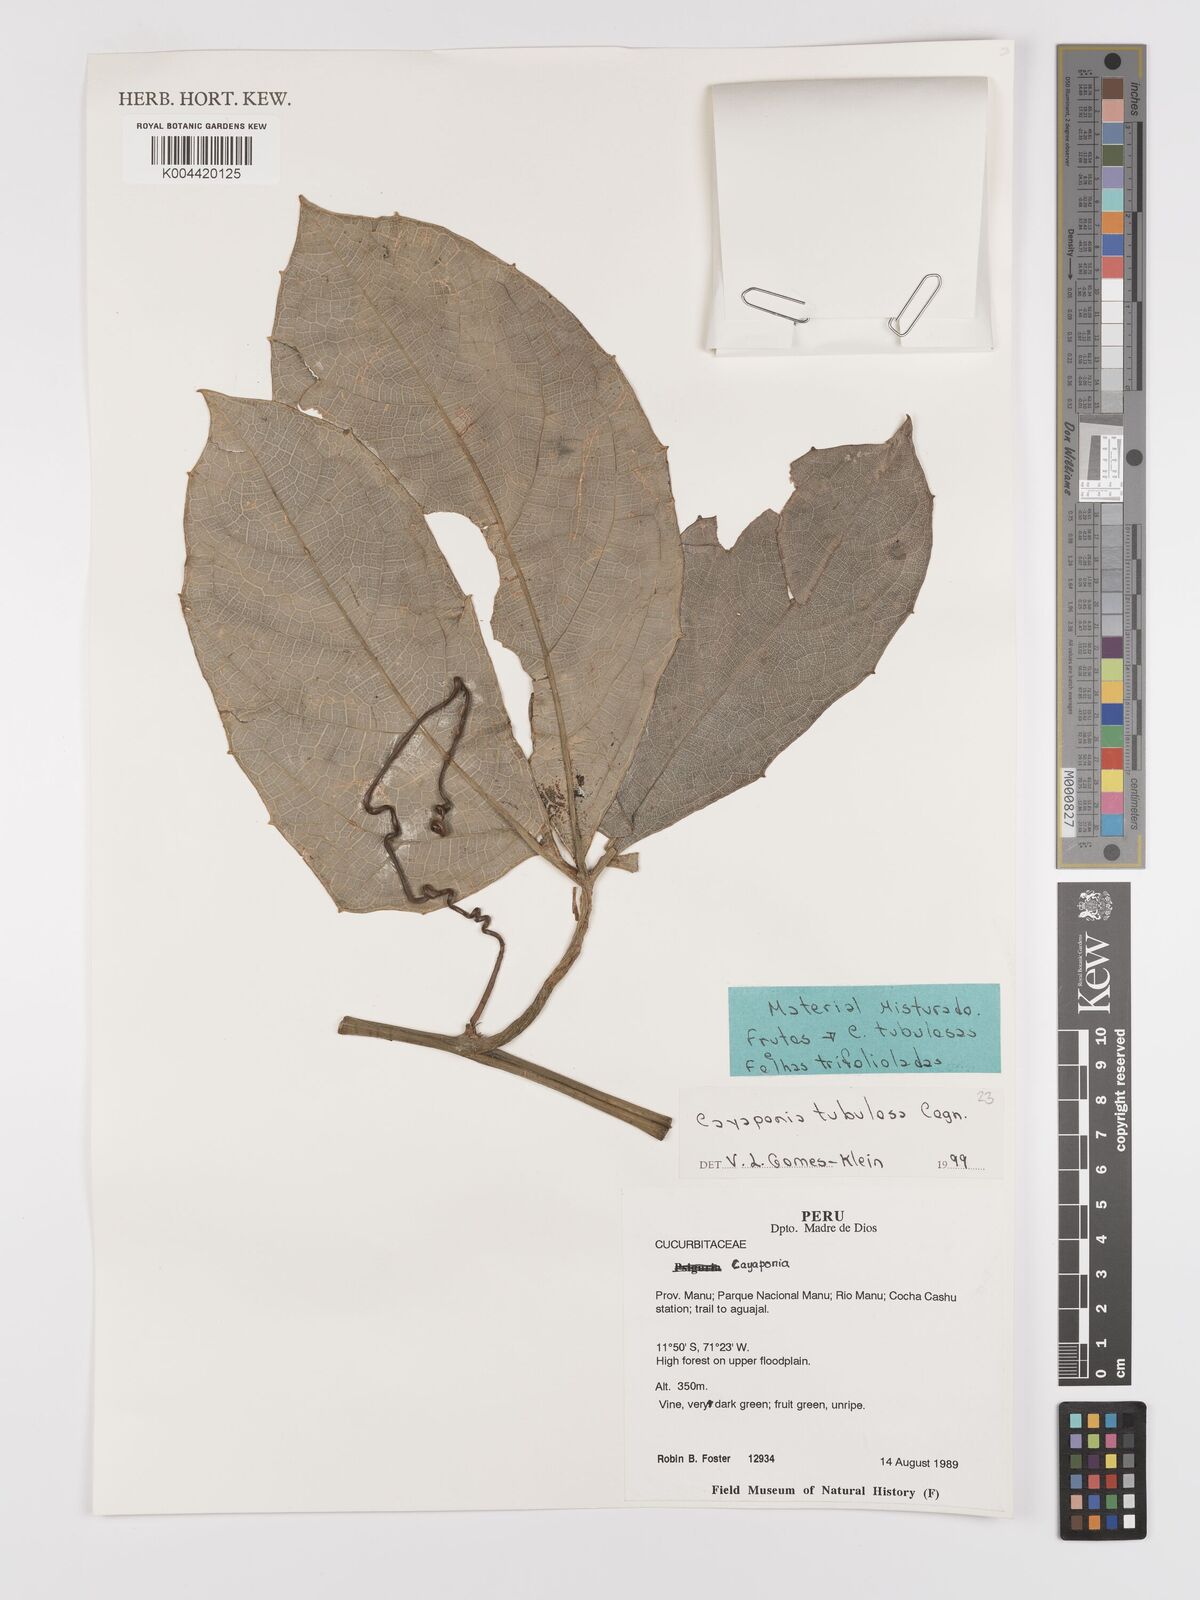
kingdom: Plantae
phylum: Tracheophyta
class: Magnoliopsida
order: Cucurbitales
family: Cucurbitaceae
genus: Cayaponia
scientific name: Cayaponia tubulosa
